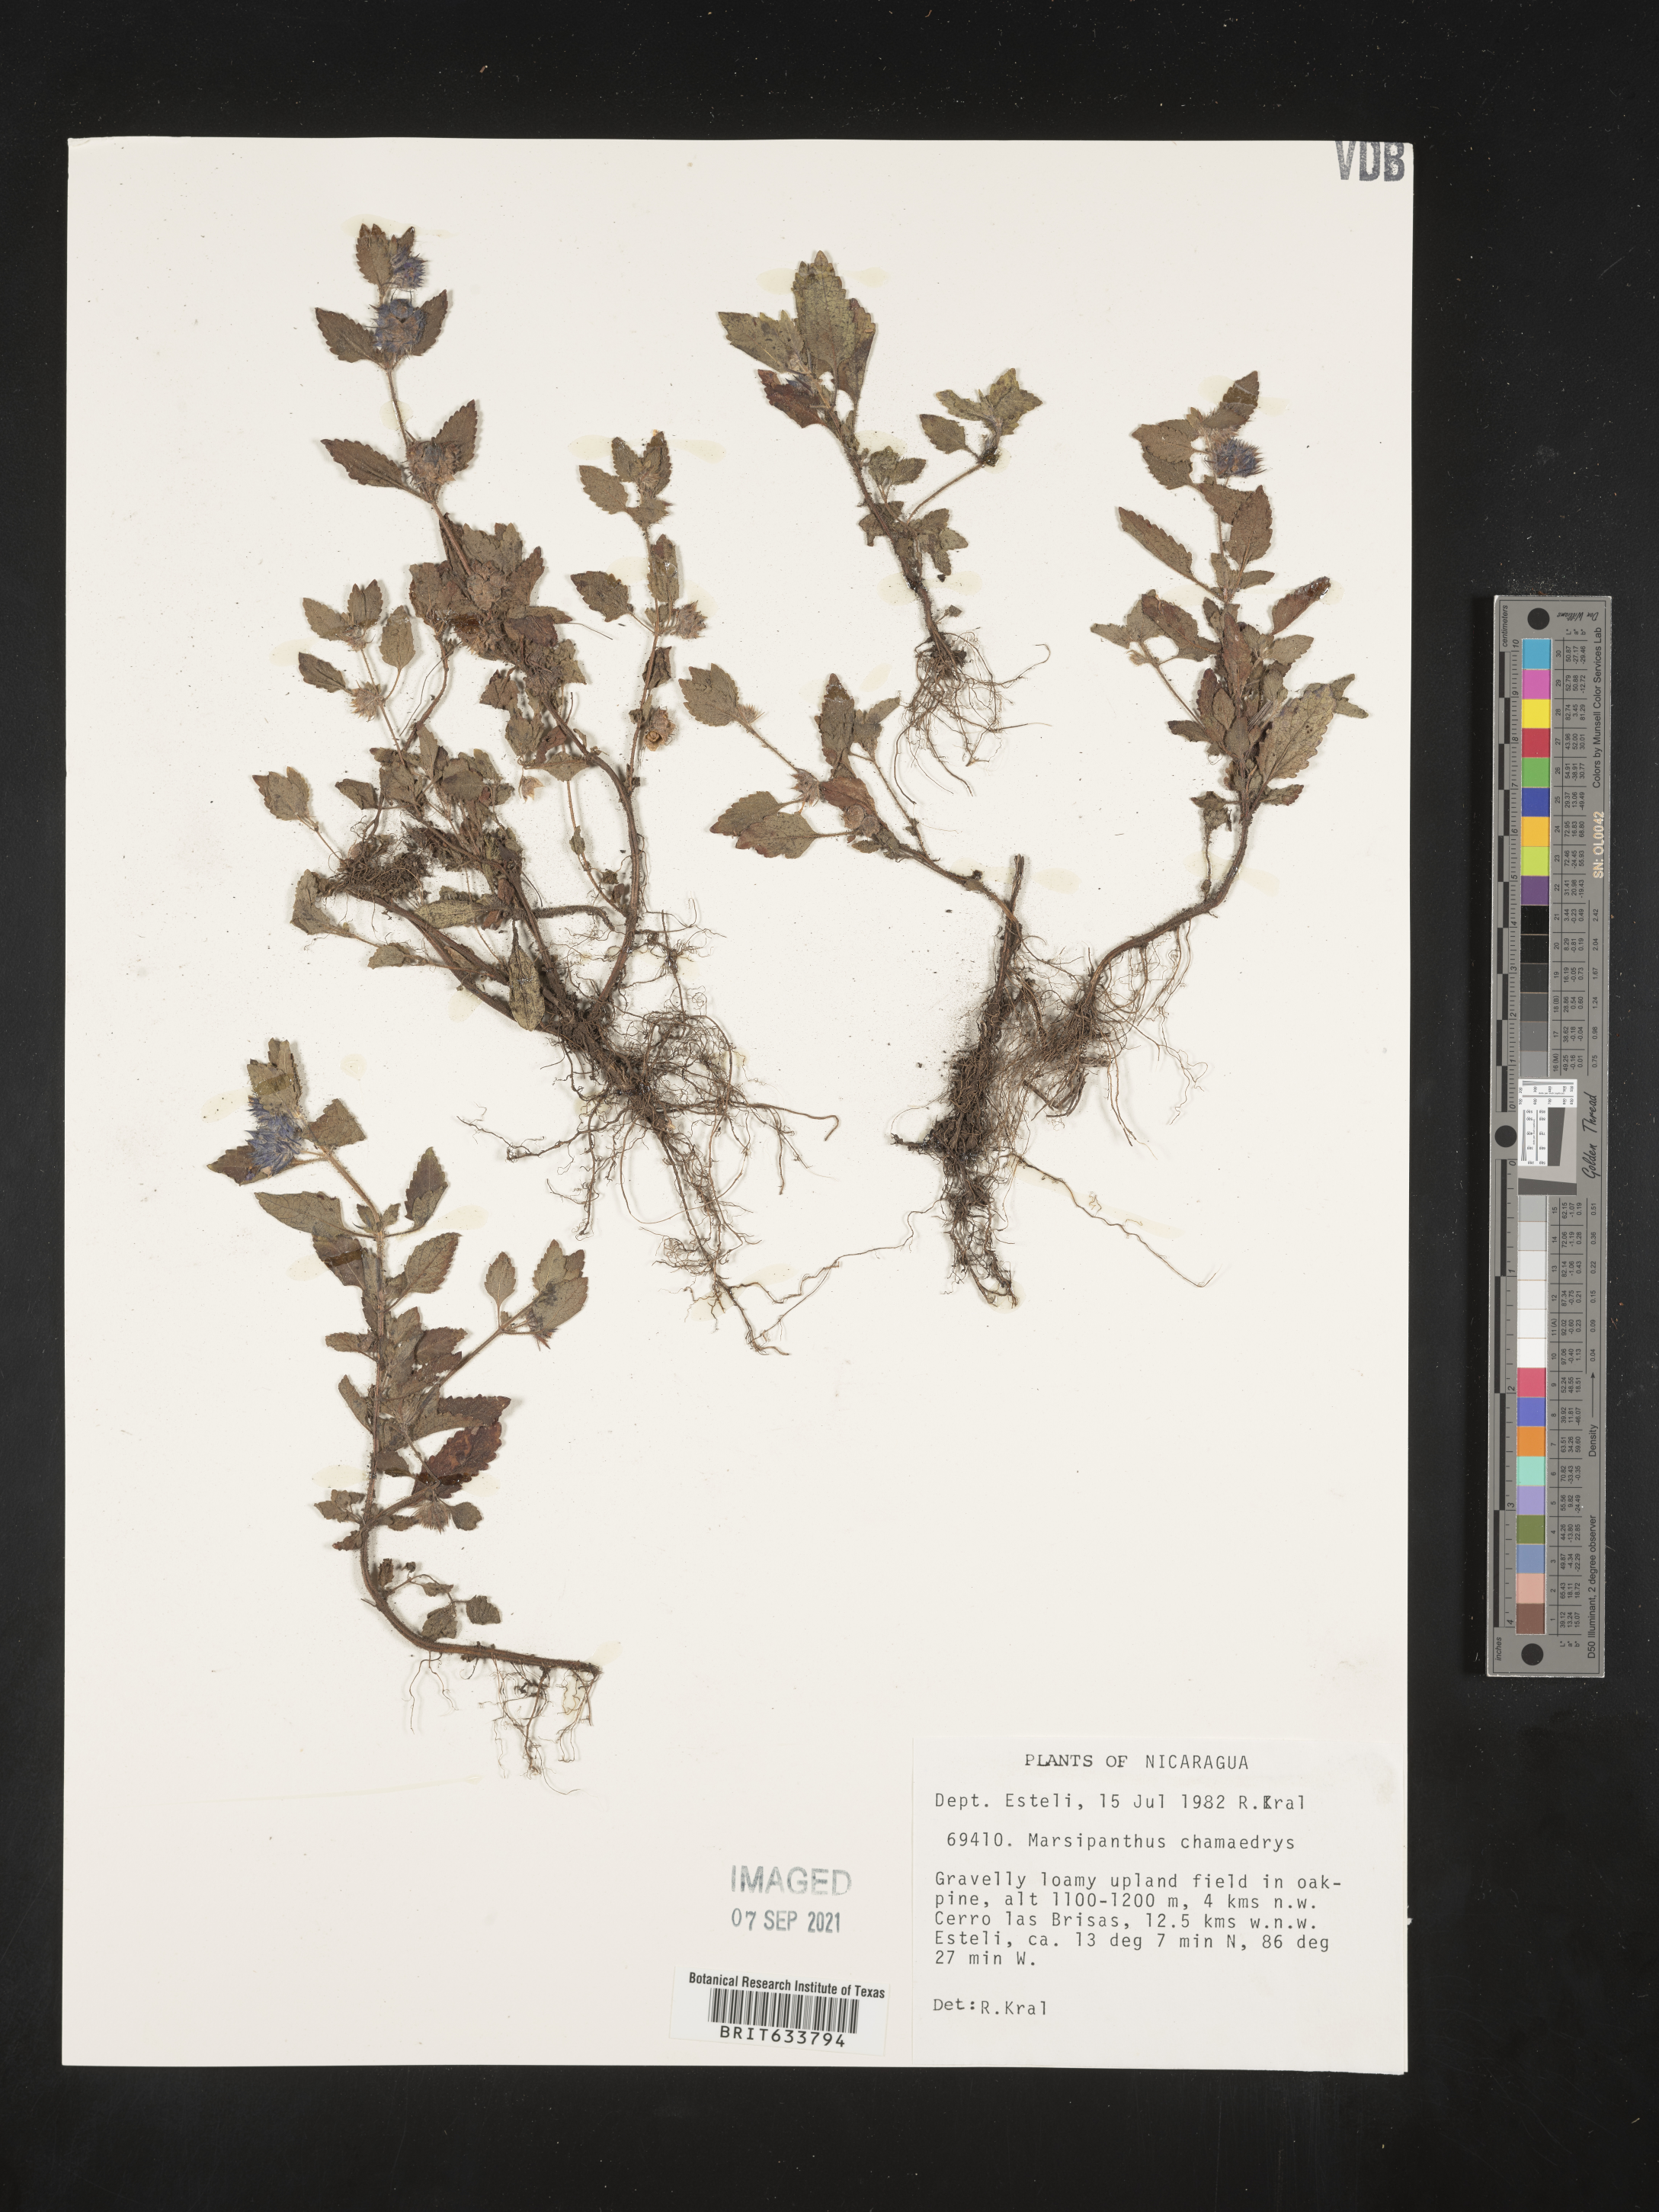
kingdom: Plantae
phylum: Tracheophyta
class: Magnoliopsida
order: Lamiales
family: Lamiaceae
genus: Marsypianthes
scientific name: Marsypianthes
